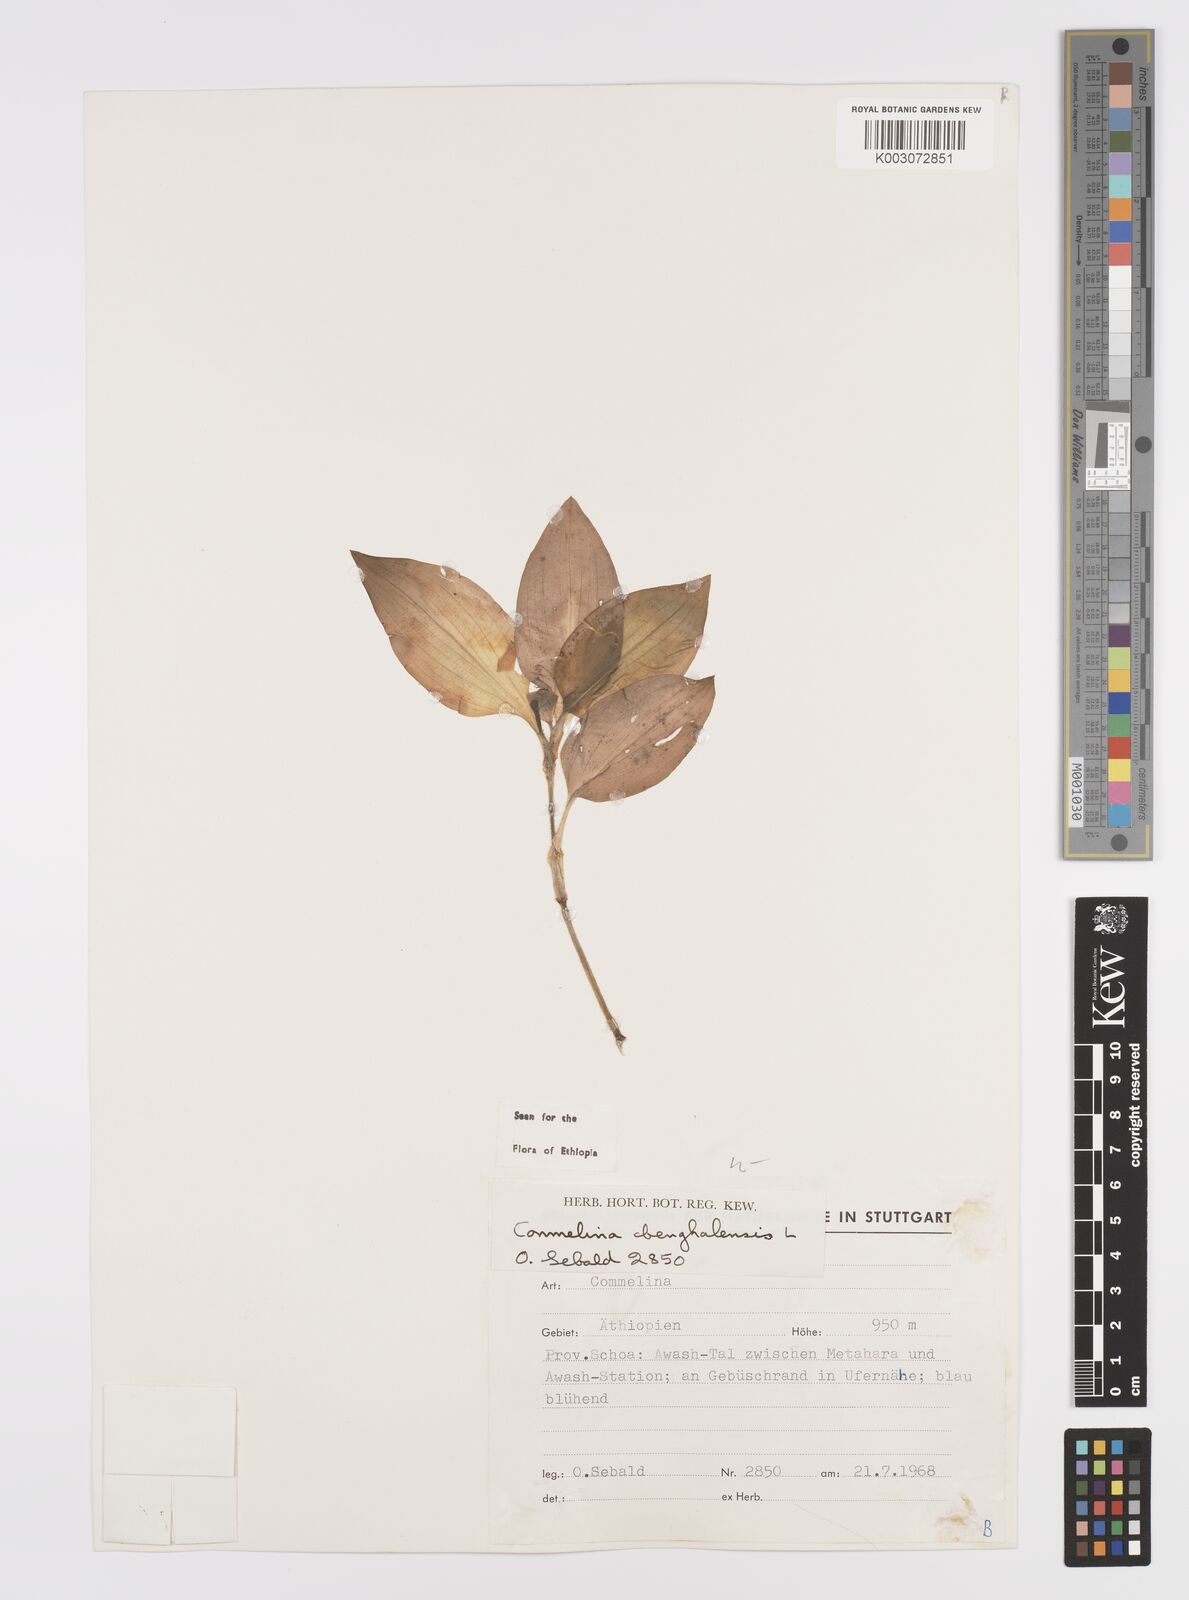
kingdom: Plantae
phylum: Tracheophyta
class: Liliopsida
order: Commelinales
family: Commelinaceae
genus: Commelina
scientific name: Commelina benghalensis
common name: Jio
